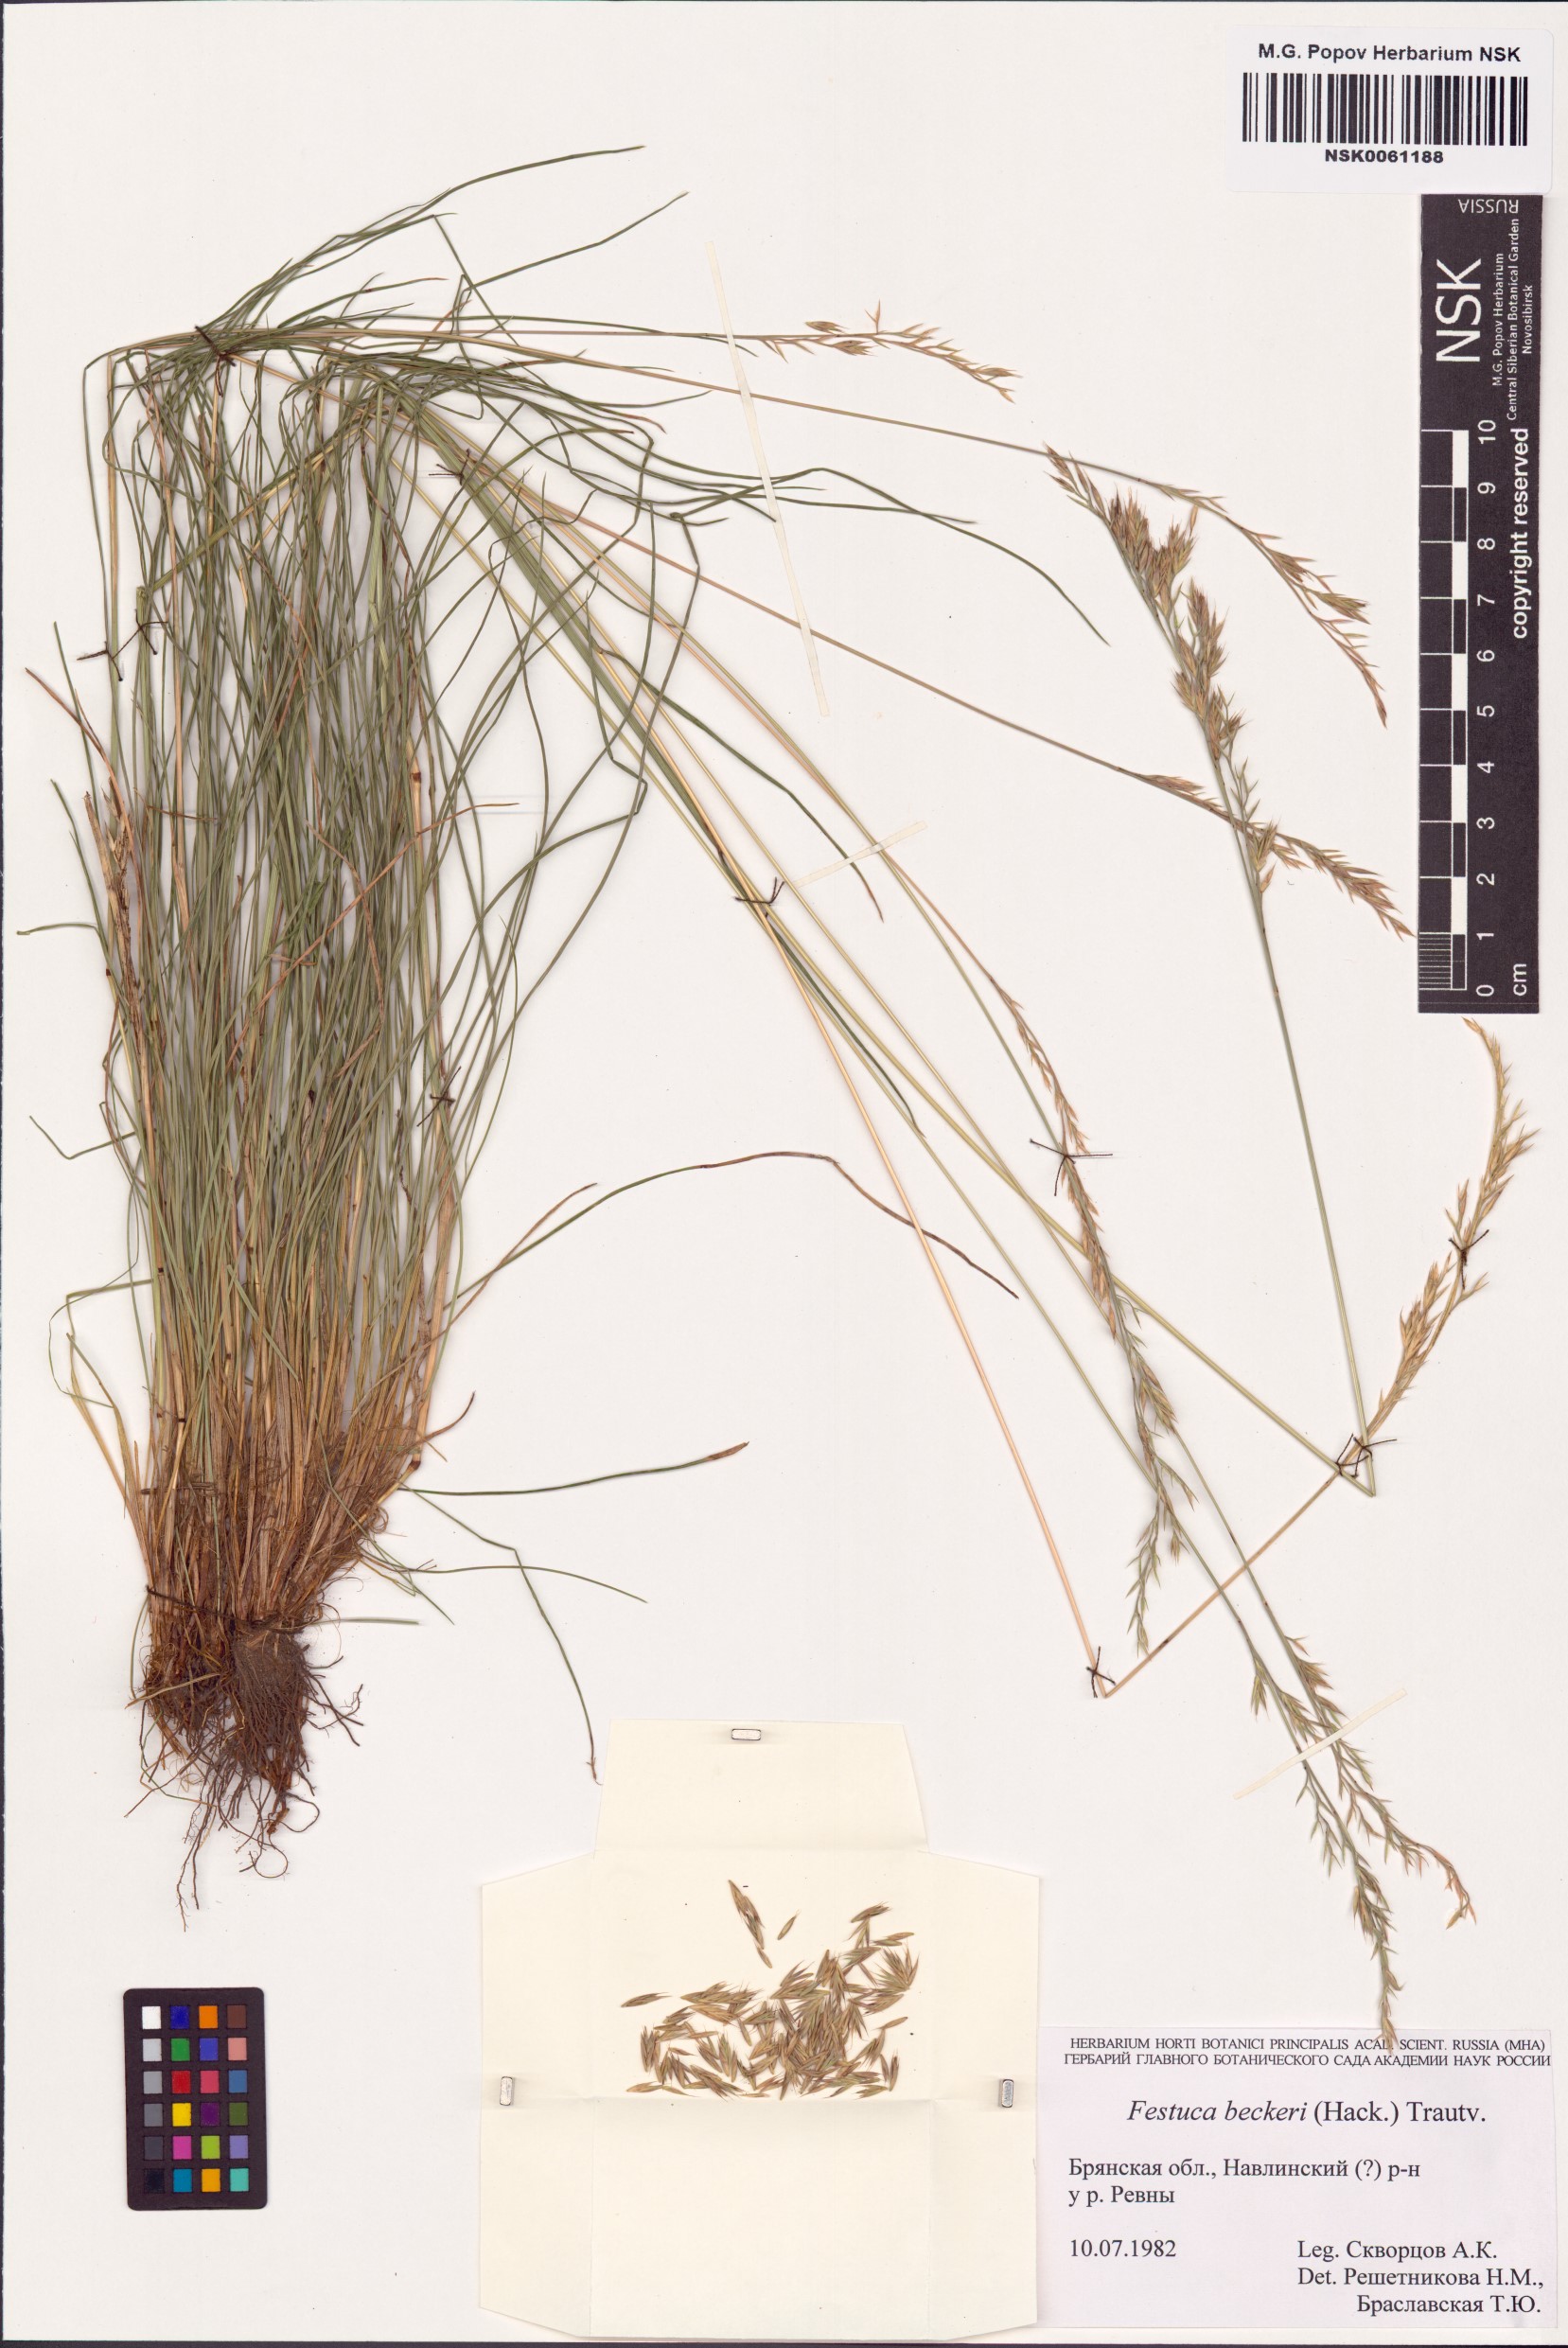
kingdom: Plantae
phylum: Tracheophyta
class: Liliopsida
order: Poales
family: Poaceae
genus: Festuca
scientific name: Festuca beckeri
